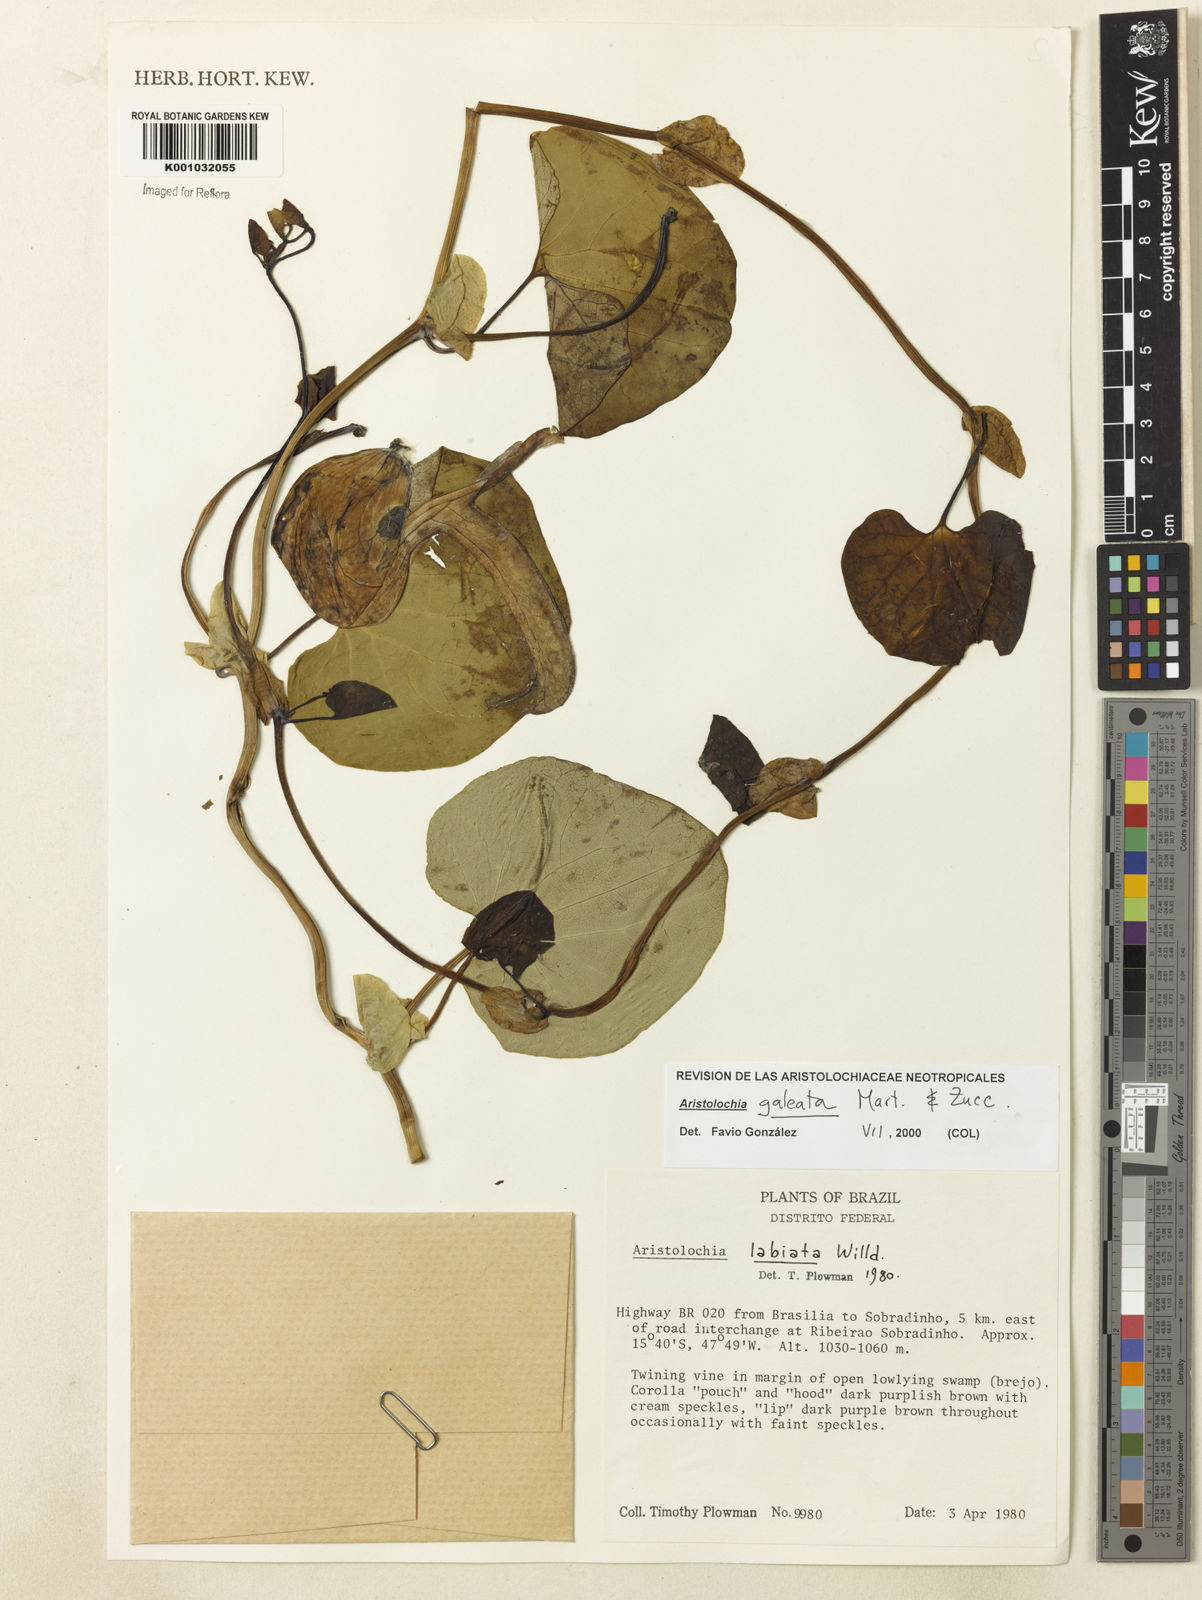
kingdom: Plantae
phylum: Tracheophyta
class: Magnoliopsida
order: Piperales
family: Aristolochiaceae
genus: Aristolochia
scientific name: Aristolochia
